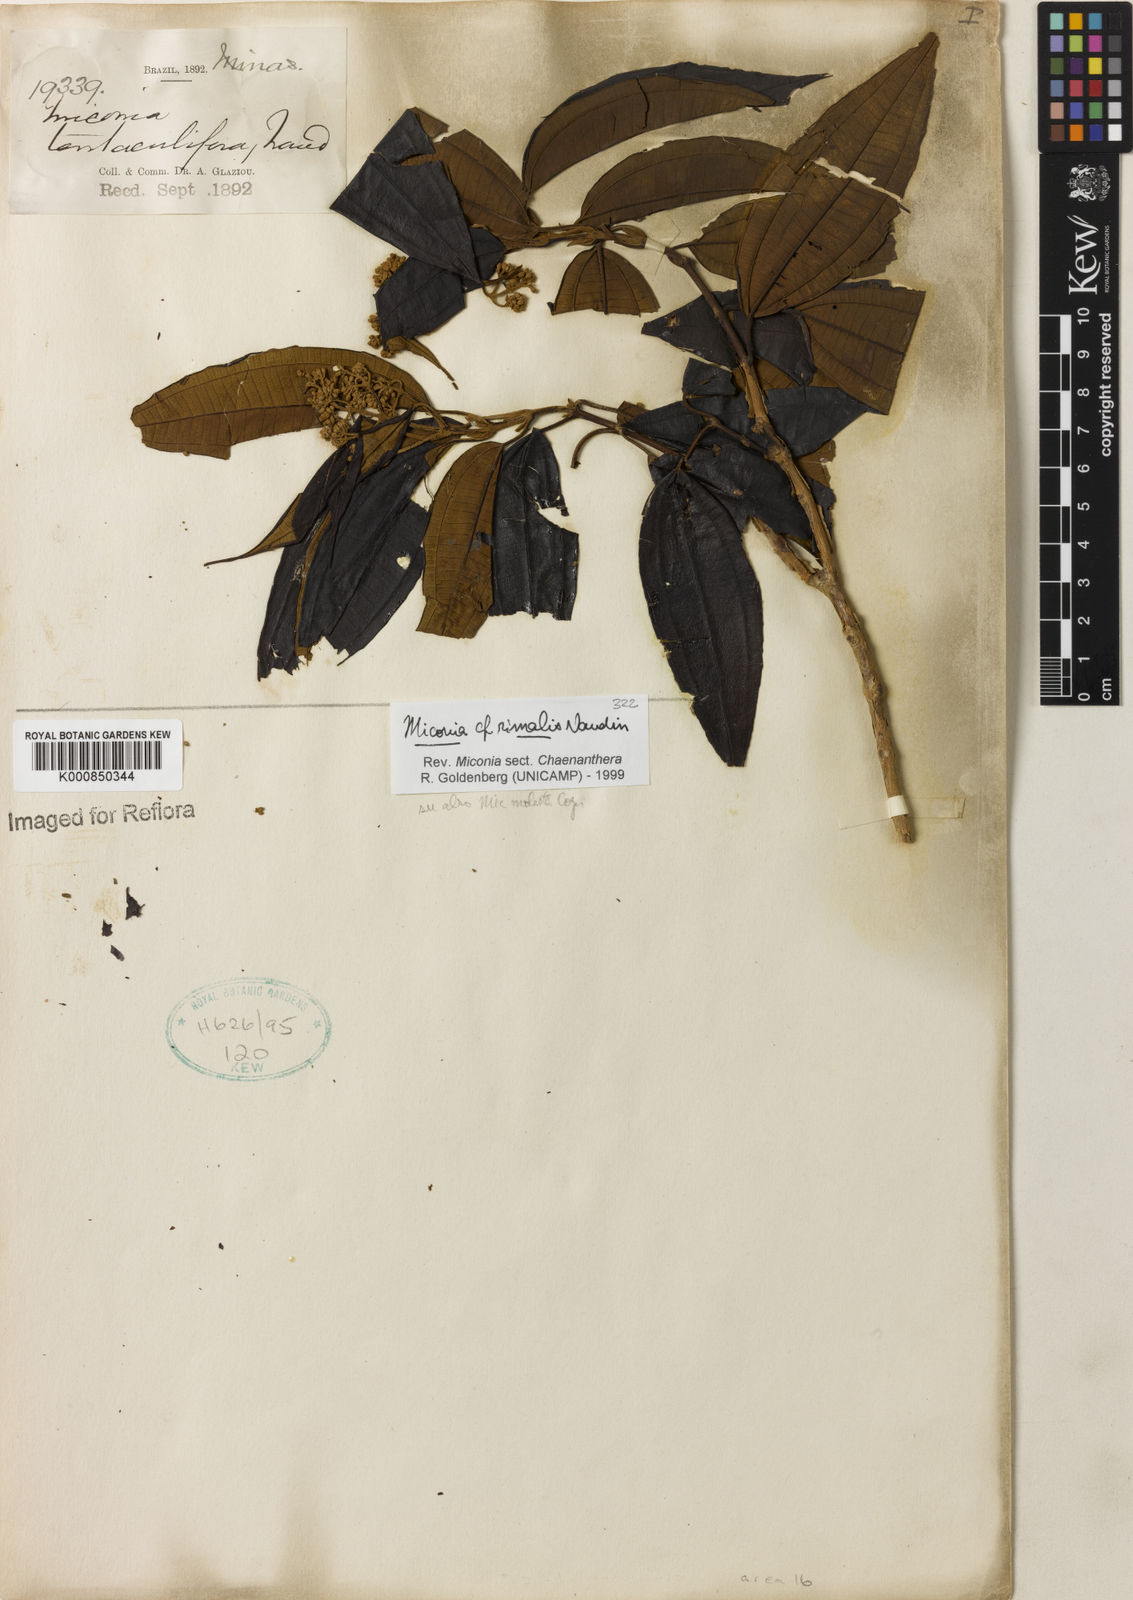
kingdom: Plantae
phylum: Tracheophyta
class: Magnoliopsida
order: Myrtales
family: Melastomataceae
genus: Miconia
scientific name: Miconia
